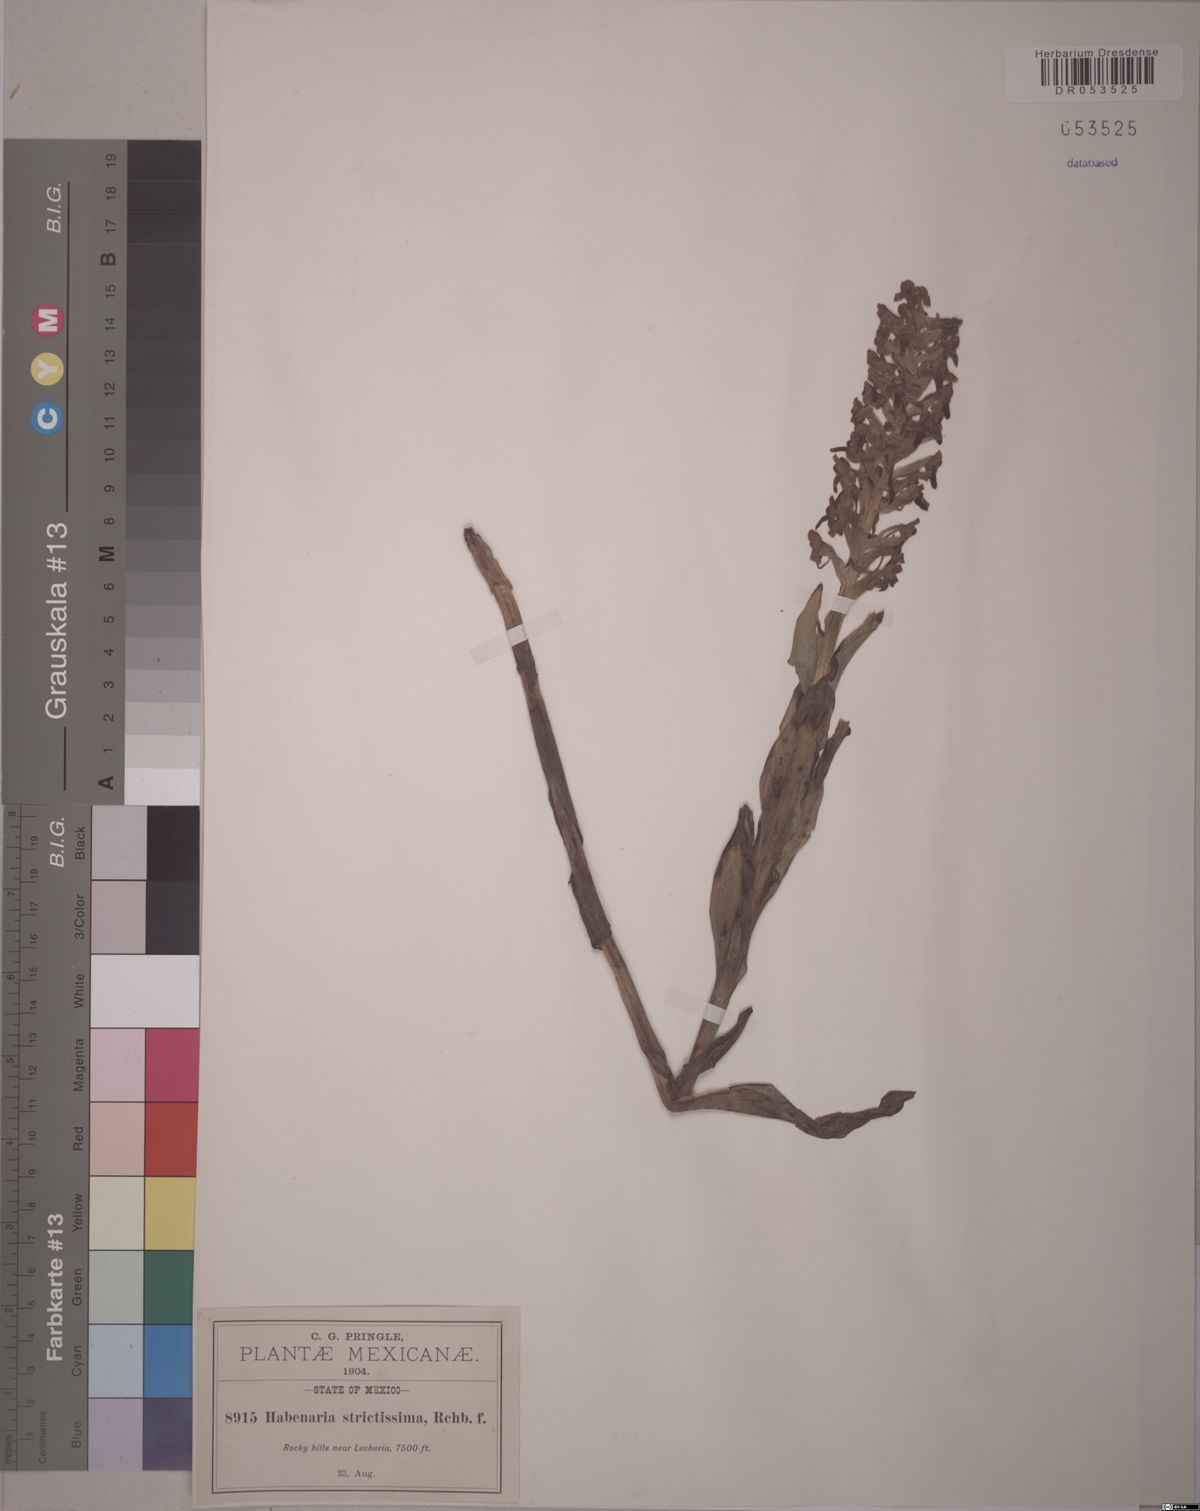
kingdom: Plantae
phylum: Tracheophyta
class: Liliopsida
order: Asparagales
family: Orchidaceae
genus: Habenaria
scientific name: Habenaria strictissima
